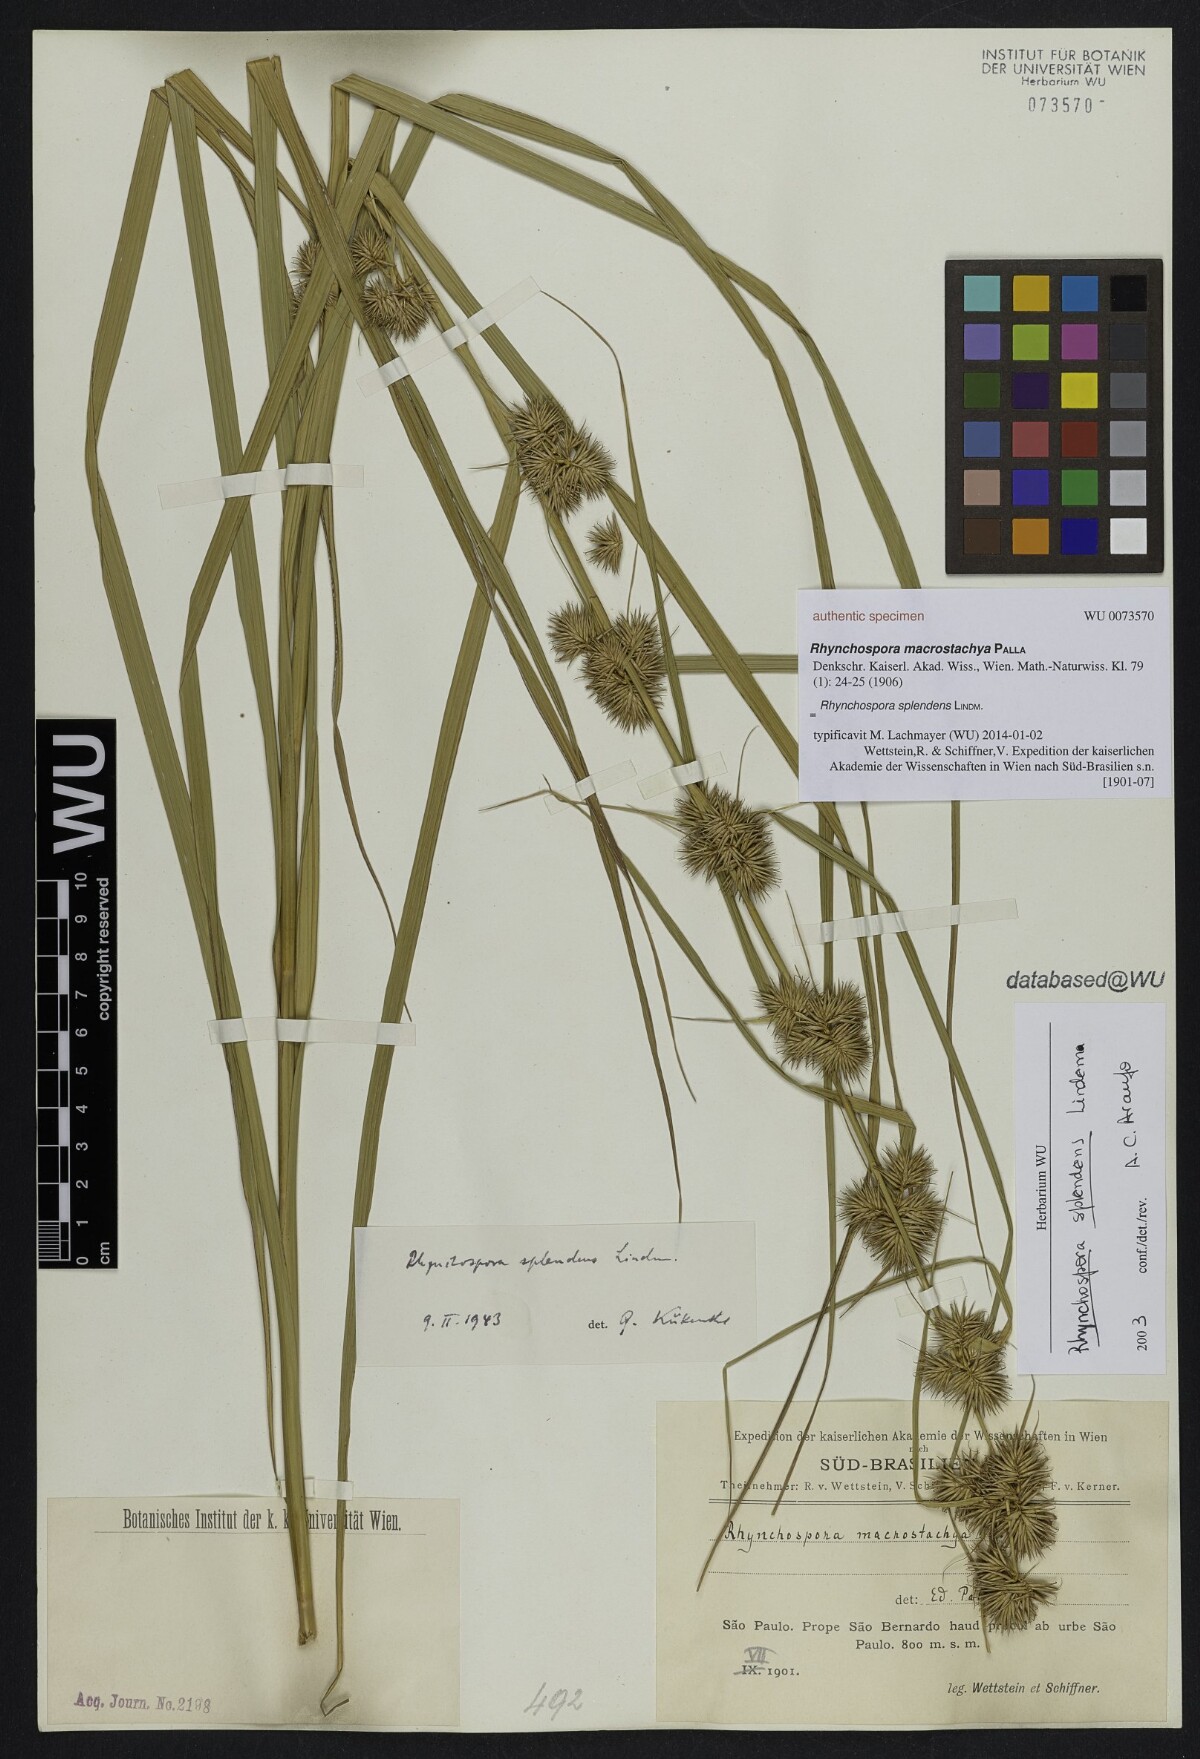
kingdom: Plantae
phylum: Tracheophyta
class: Liliopsida
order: Poales
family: Cyperaceae
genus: Rhynchospora
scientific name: Rhynchospora splendens
